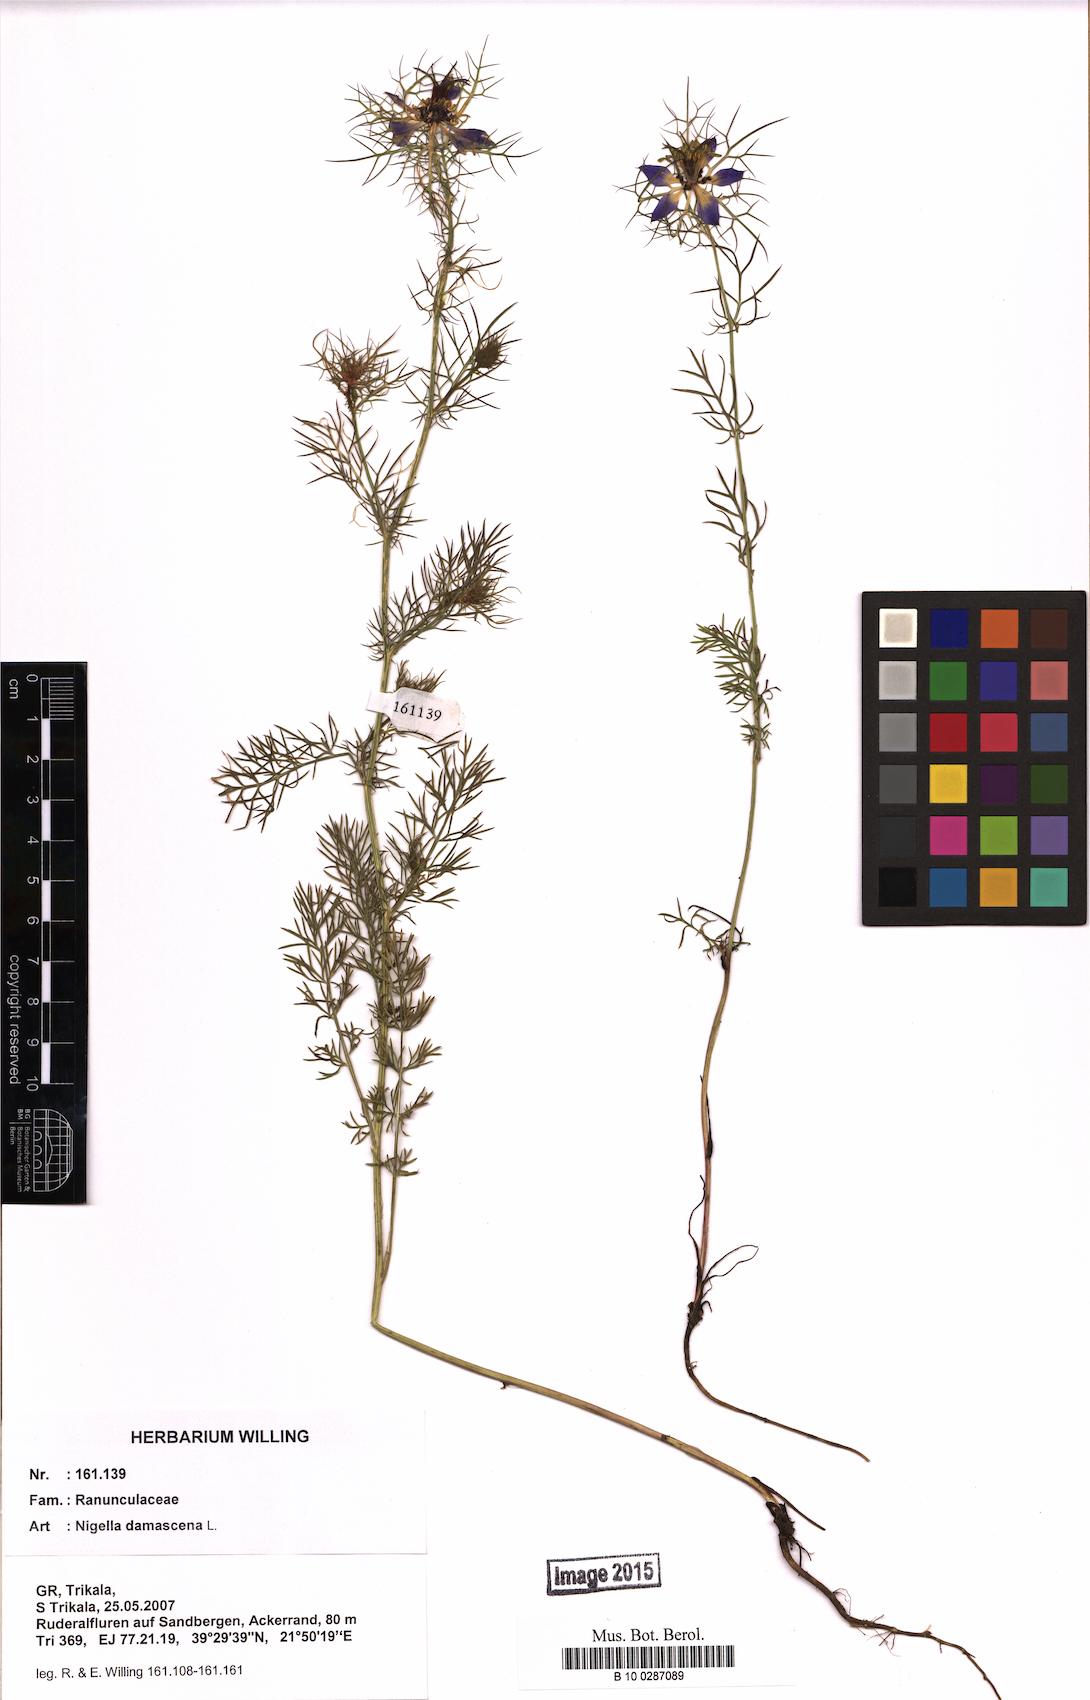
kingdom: Plantae
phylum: Tracheophyta
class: Magnoliopsida
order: Ranunculales
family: Ranunculaceae
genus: Nigella
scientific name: Nigella damascena
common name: Love-in-a-mist
